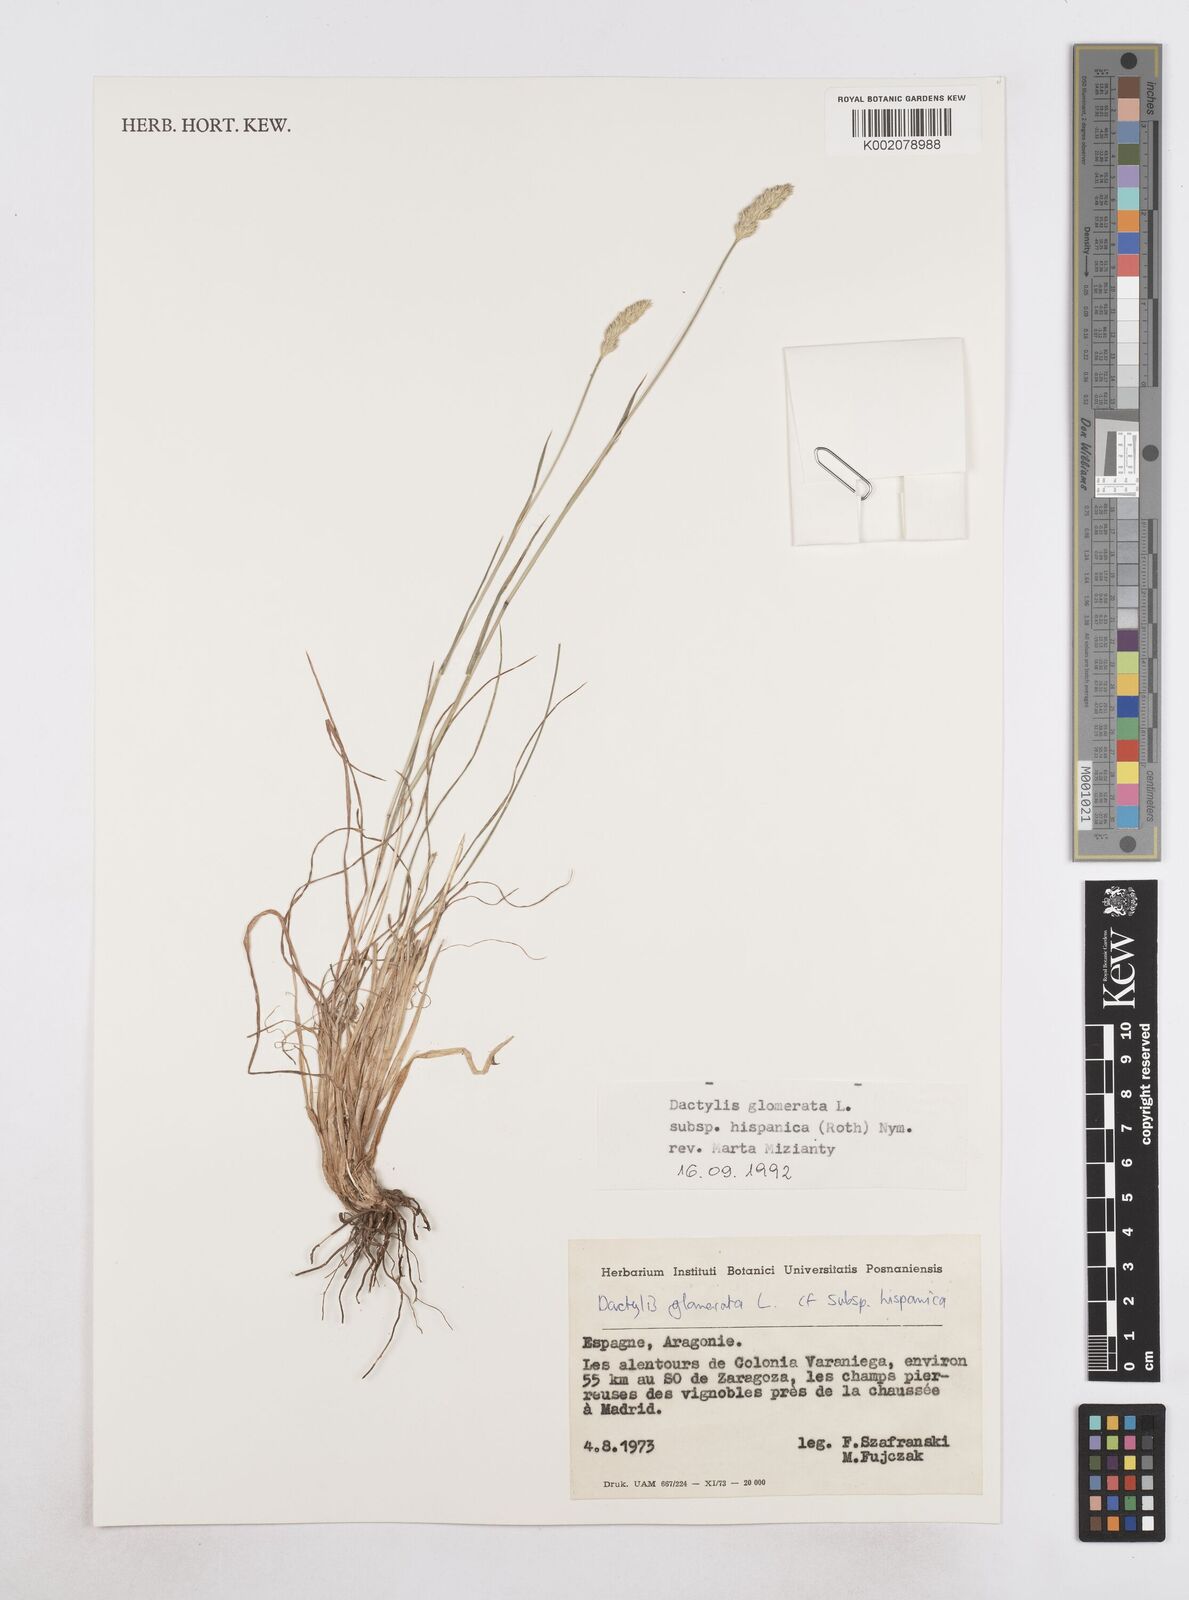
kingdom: Plantae
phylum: Tracheophyta
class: Liliopsida
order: Poales
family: Poaceae
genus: Dactylis
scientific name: Dactylis glomerata
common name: Orchardgrass
